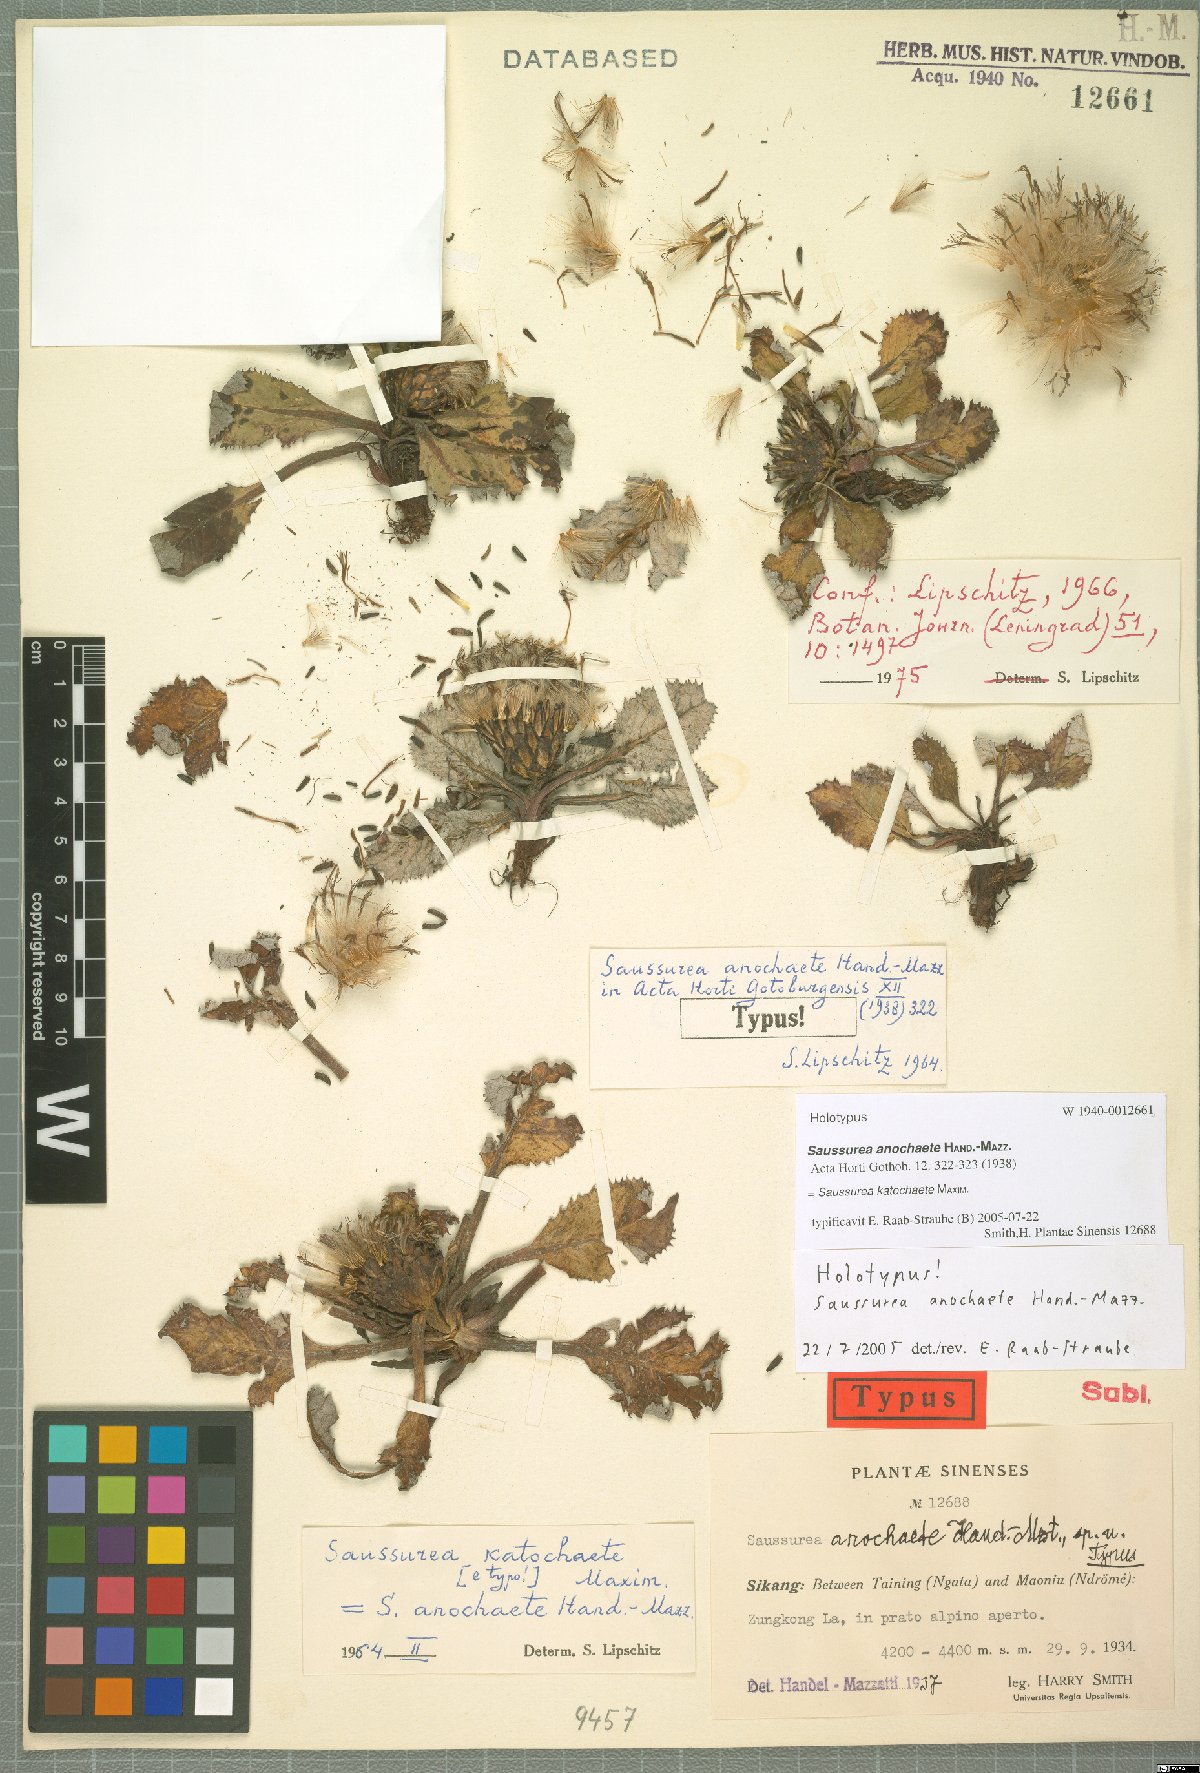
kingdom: Plantae
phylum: Tracheophyta
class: Magnoliopsida
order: Asterales
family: Asteraceae
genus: Saussurea
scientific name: Saussurea katochaete
